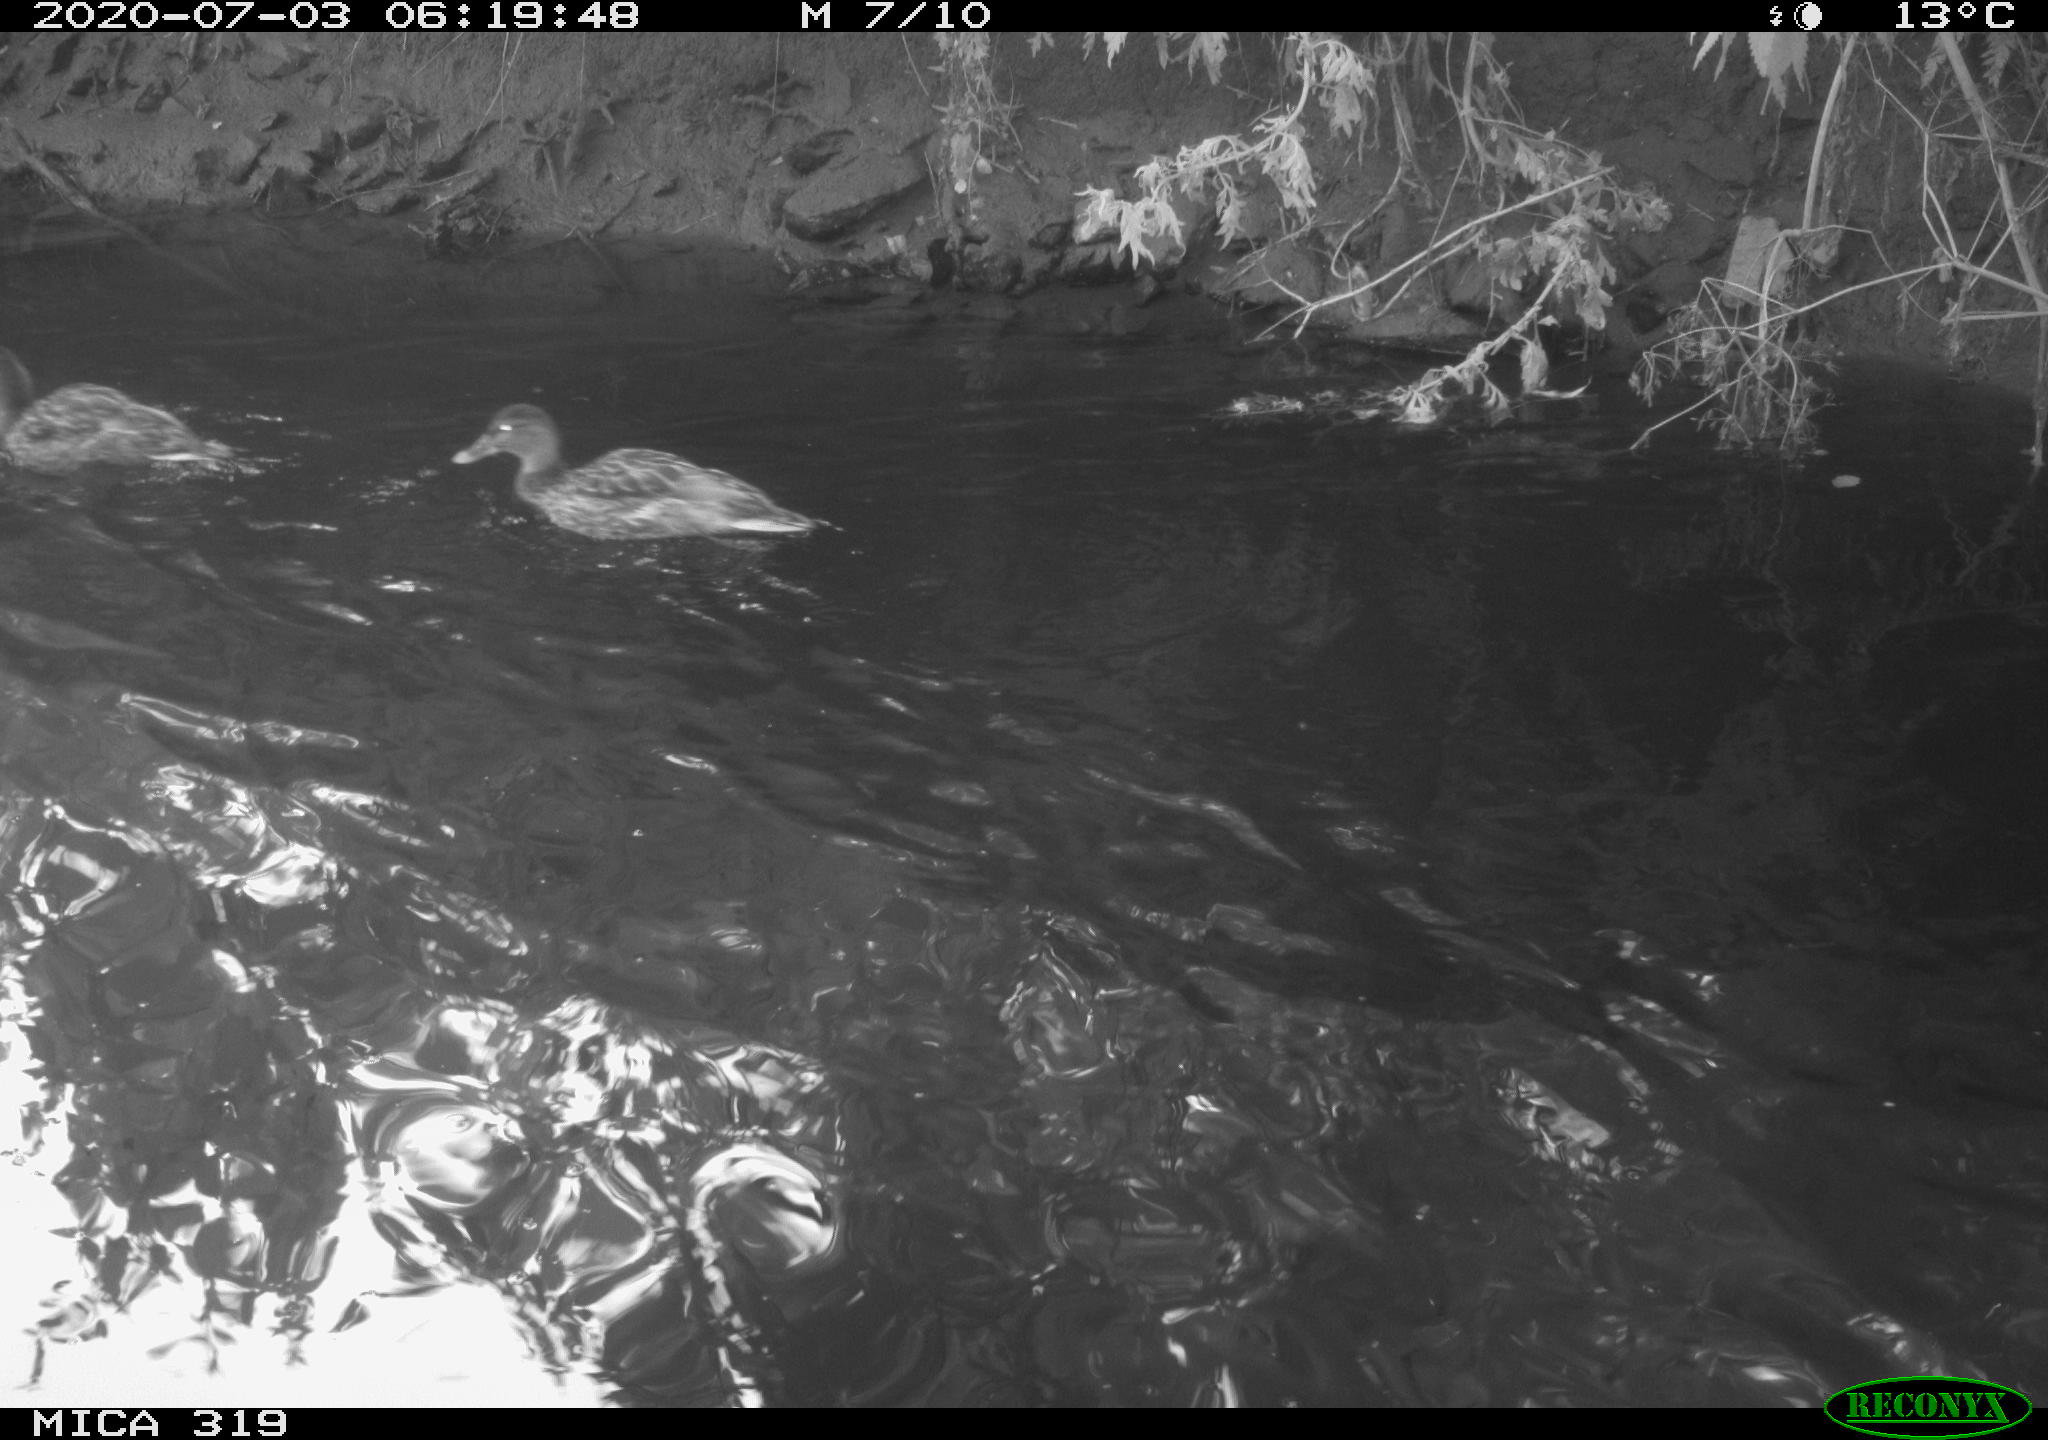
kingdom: Animalia
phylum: Chordata
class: Aves
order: Anseriformes
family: Anatidae
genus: Anas
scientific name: Anas platyrhynchos
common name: Mallard
